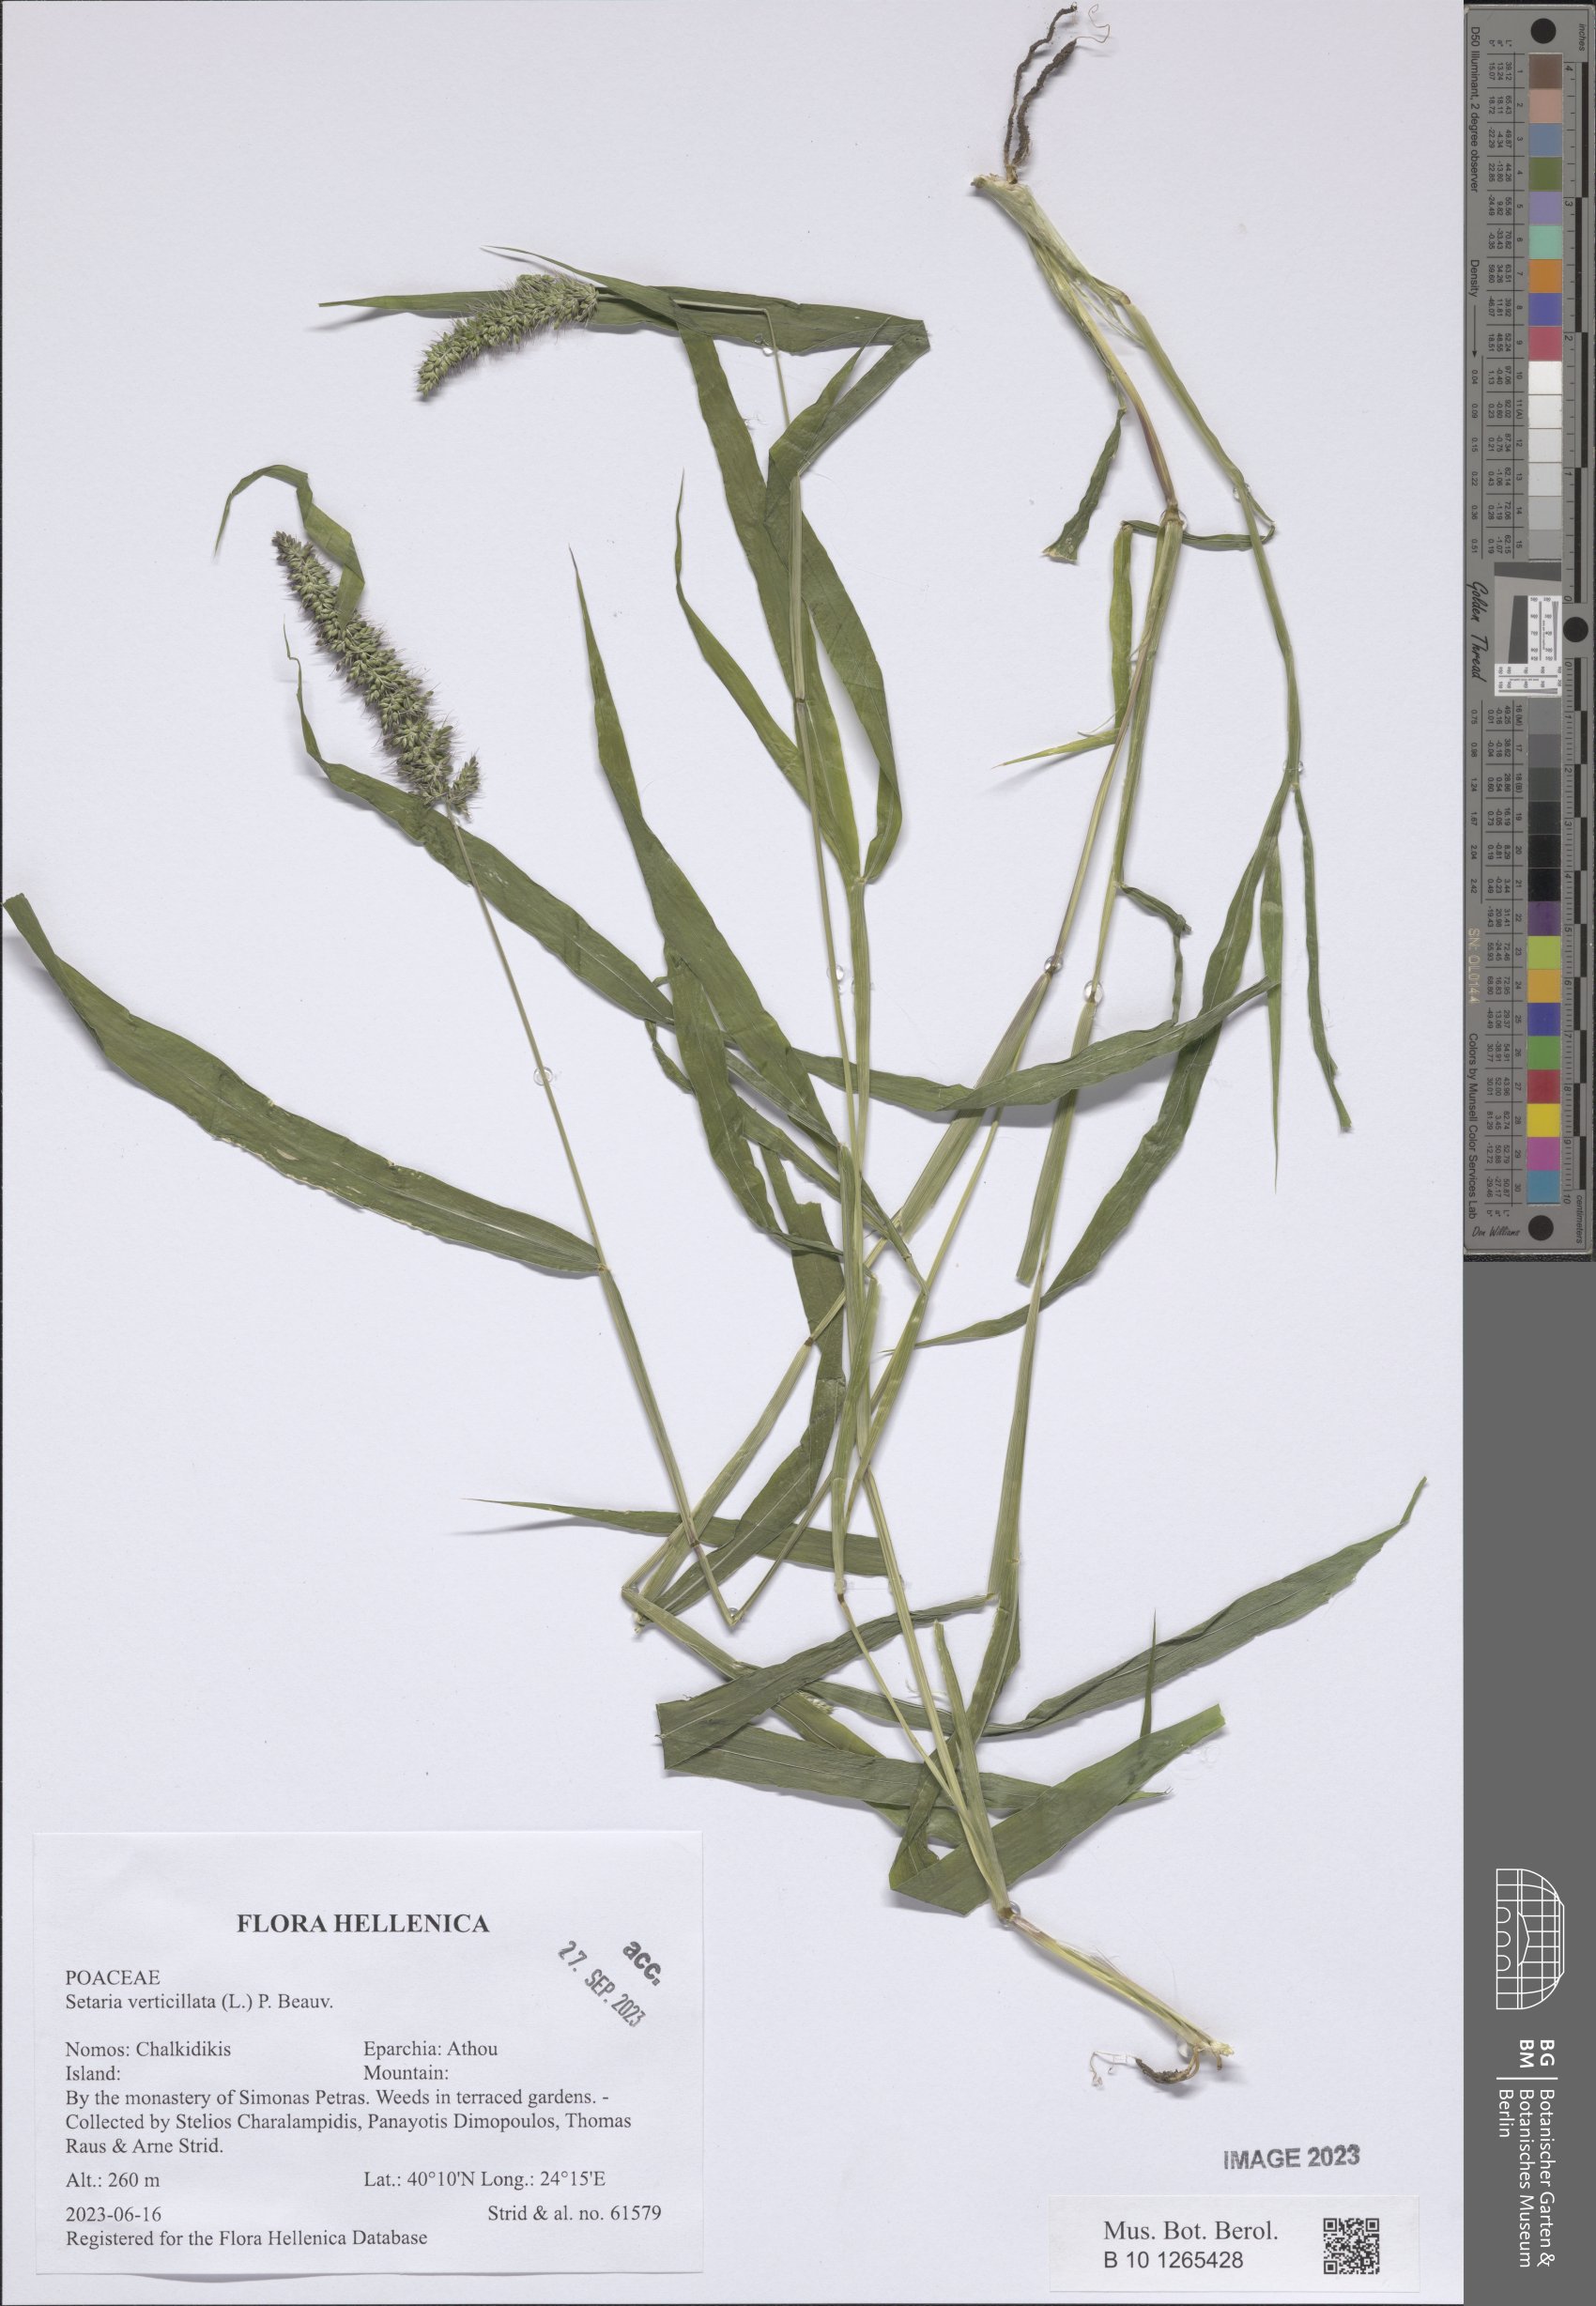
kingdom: Plantae
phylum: Tracheophyta
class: Liliopsida
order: Poales
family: Poaceae
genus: Setaria
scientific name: Setaria verticillata
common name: Hooked bristlegrass
